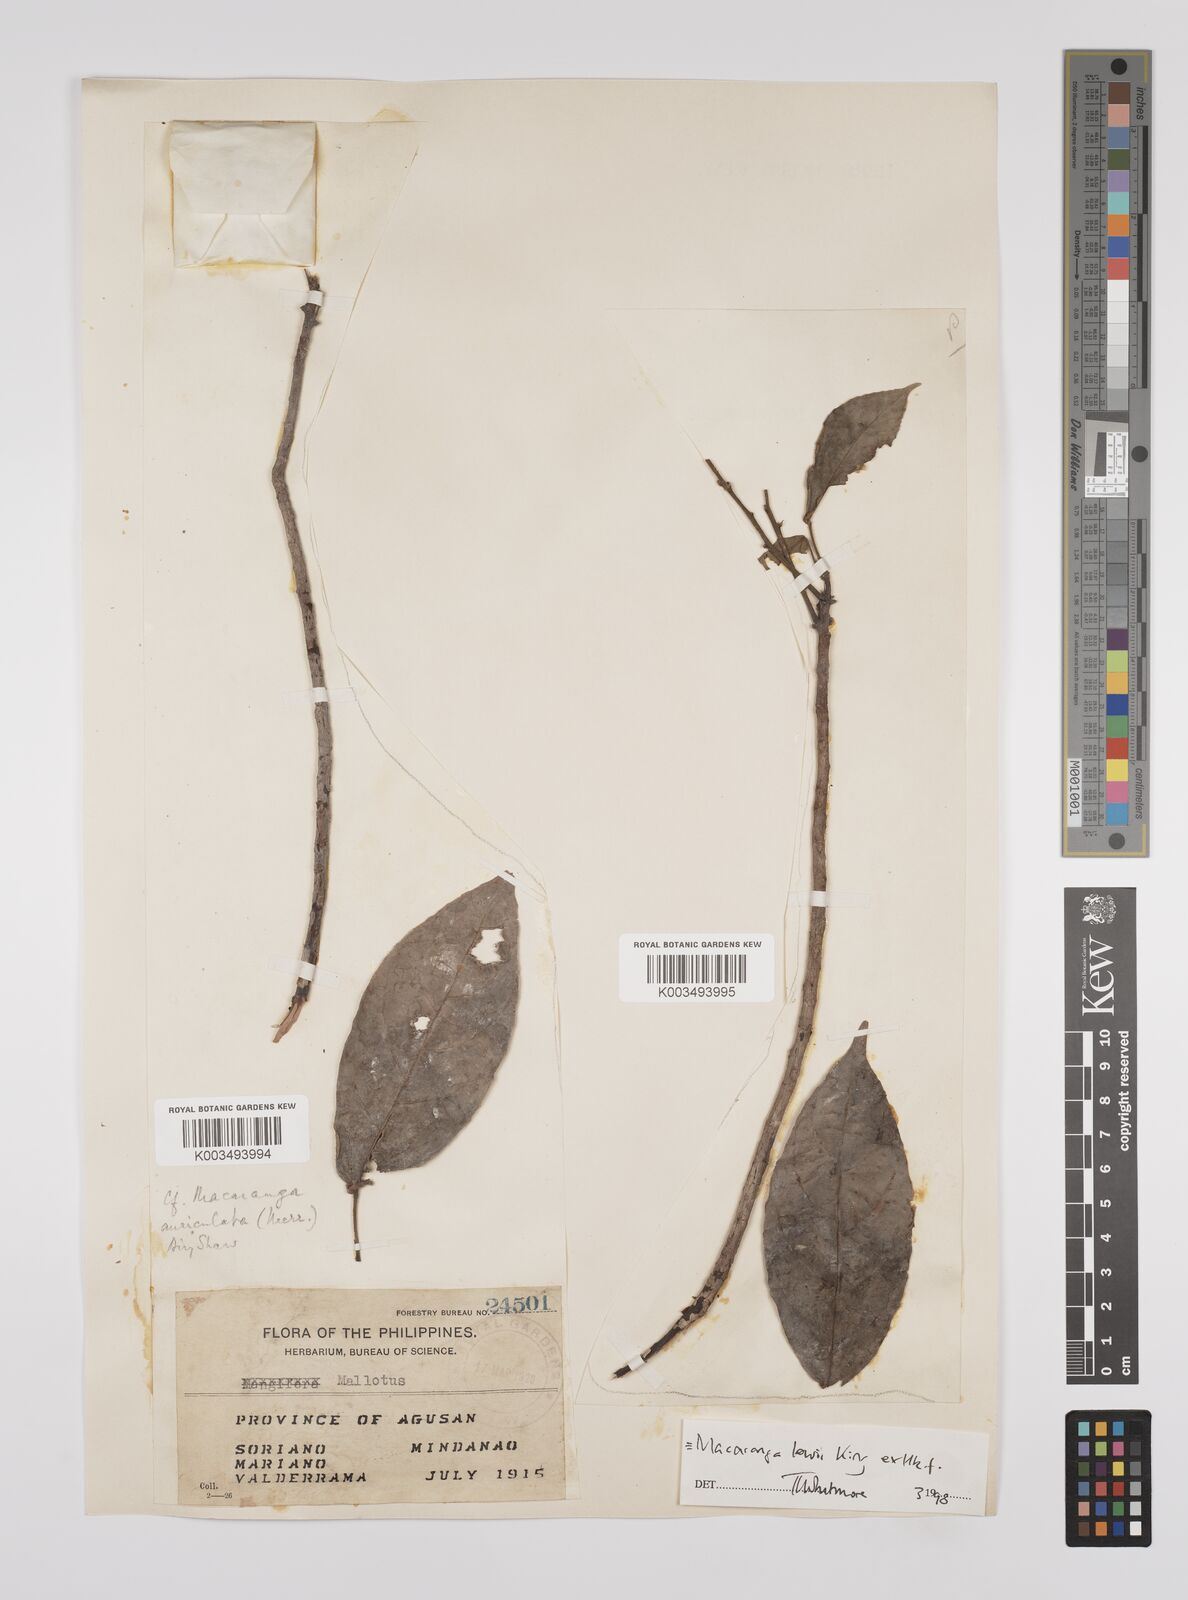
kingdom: Plantae
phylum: Tracheophyta
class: Magnoliopsida
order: Malpighiales
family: Euphorbiaceae
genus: Macaranga
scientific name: Macaranga lowii
